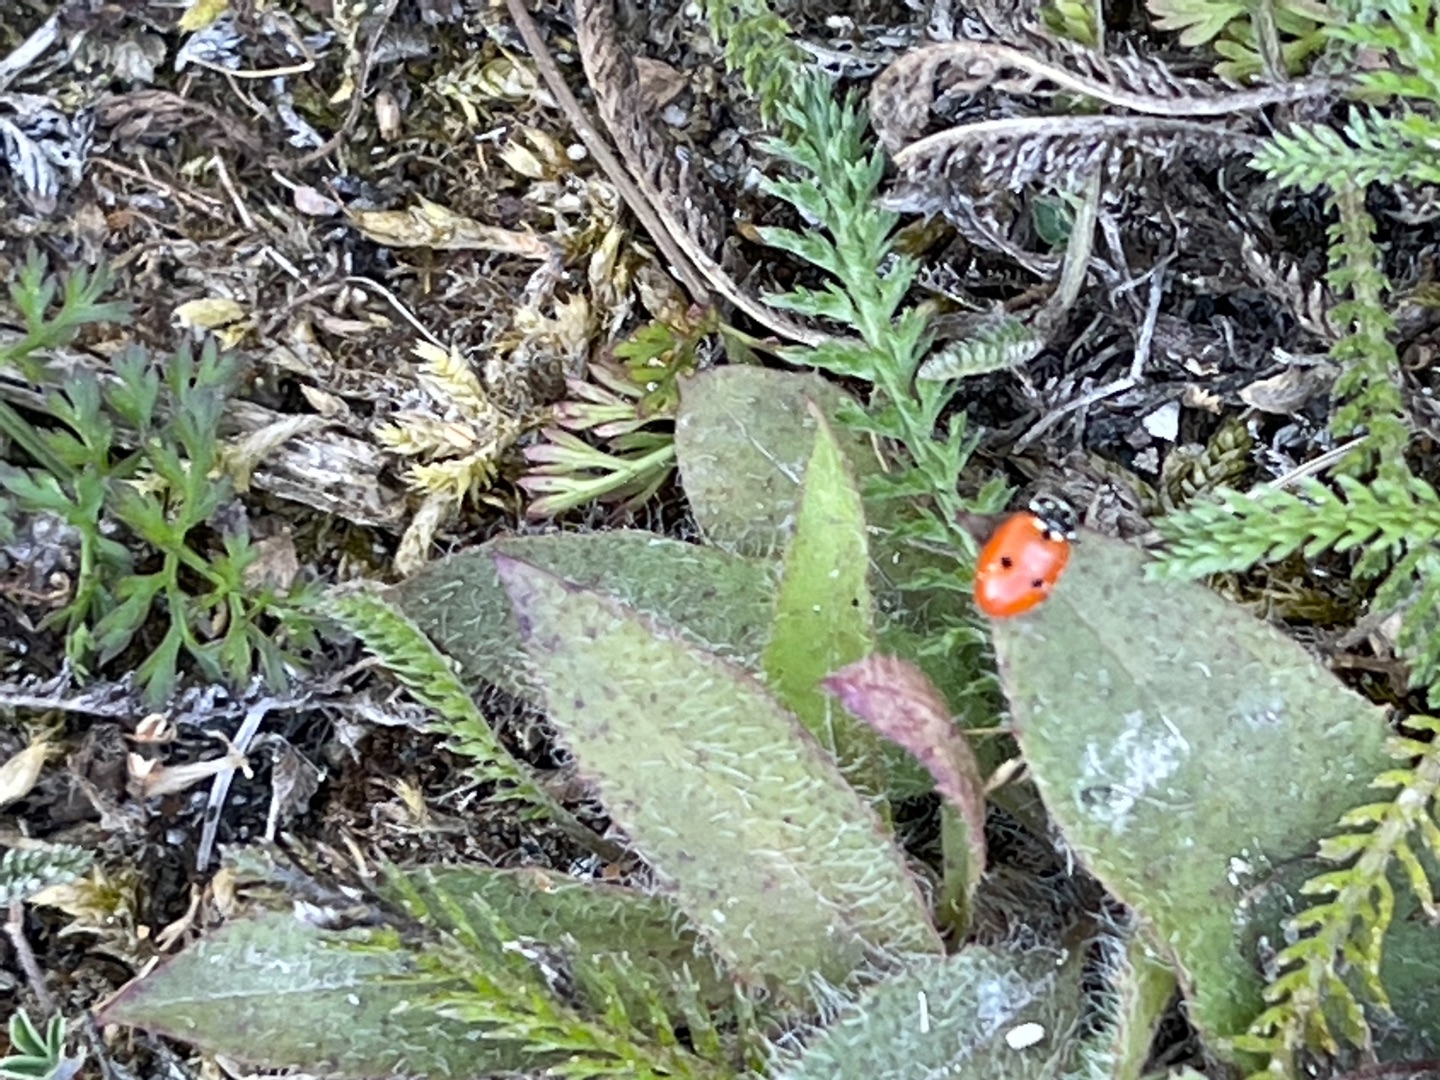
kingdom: Animalia
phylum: Arthropoda
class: Insecta
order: Coleoptera
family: Coccinellidae
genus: Hippodamia
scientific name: Hippodamia variegata
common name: Adonis' mariehøne
